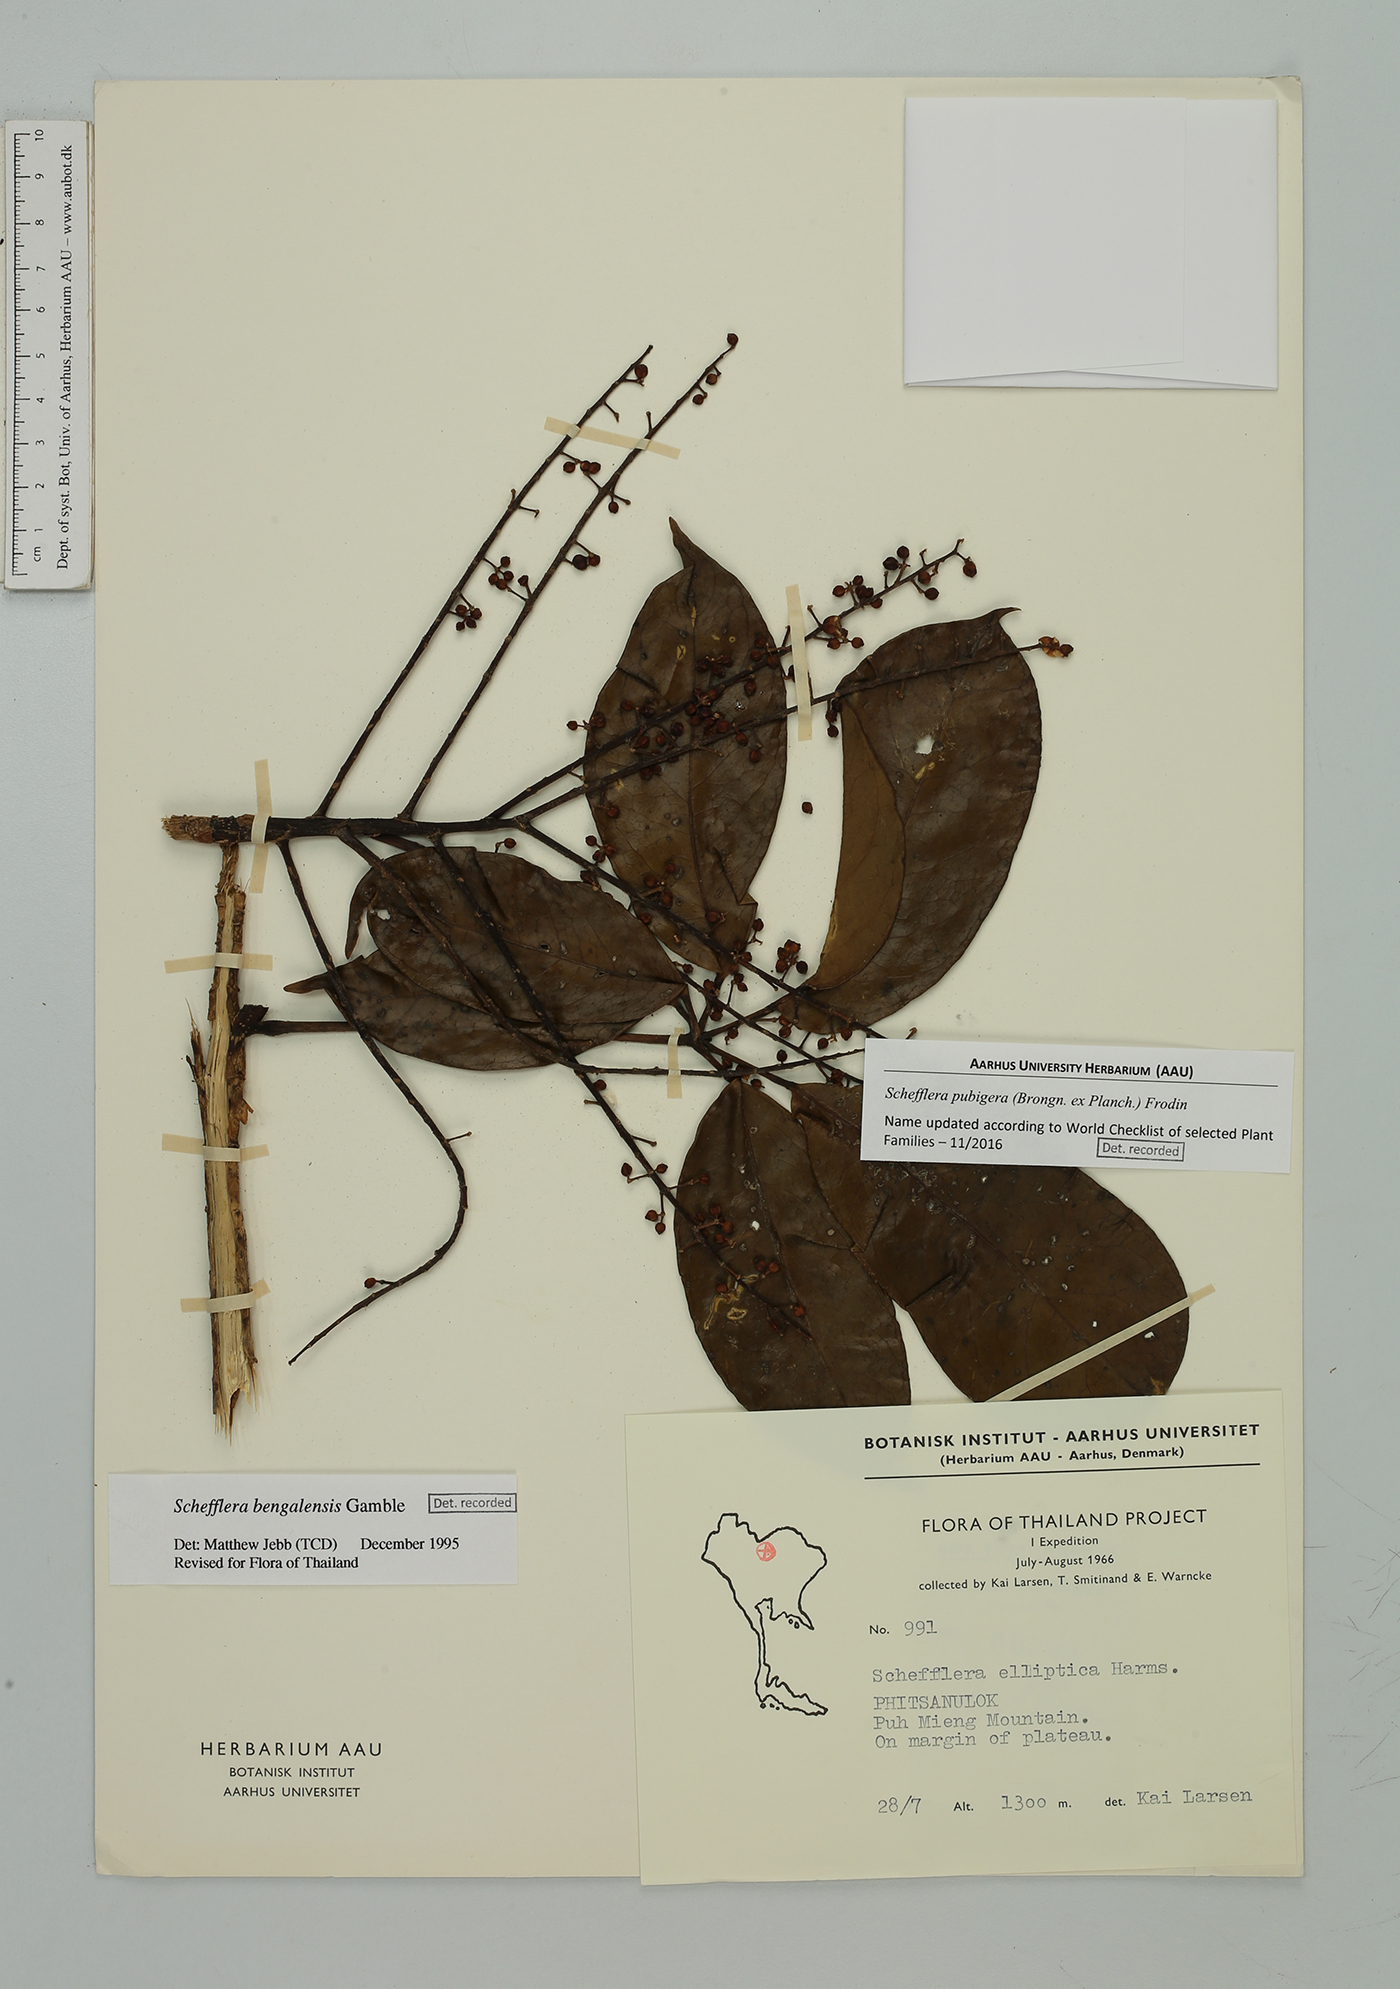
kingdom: Plantae
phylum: Tracheophyta
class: Magnoliopsida
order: Apiales
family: Araliaceae
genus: Heptapleurum
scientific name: Heptapleurum ellipticum
